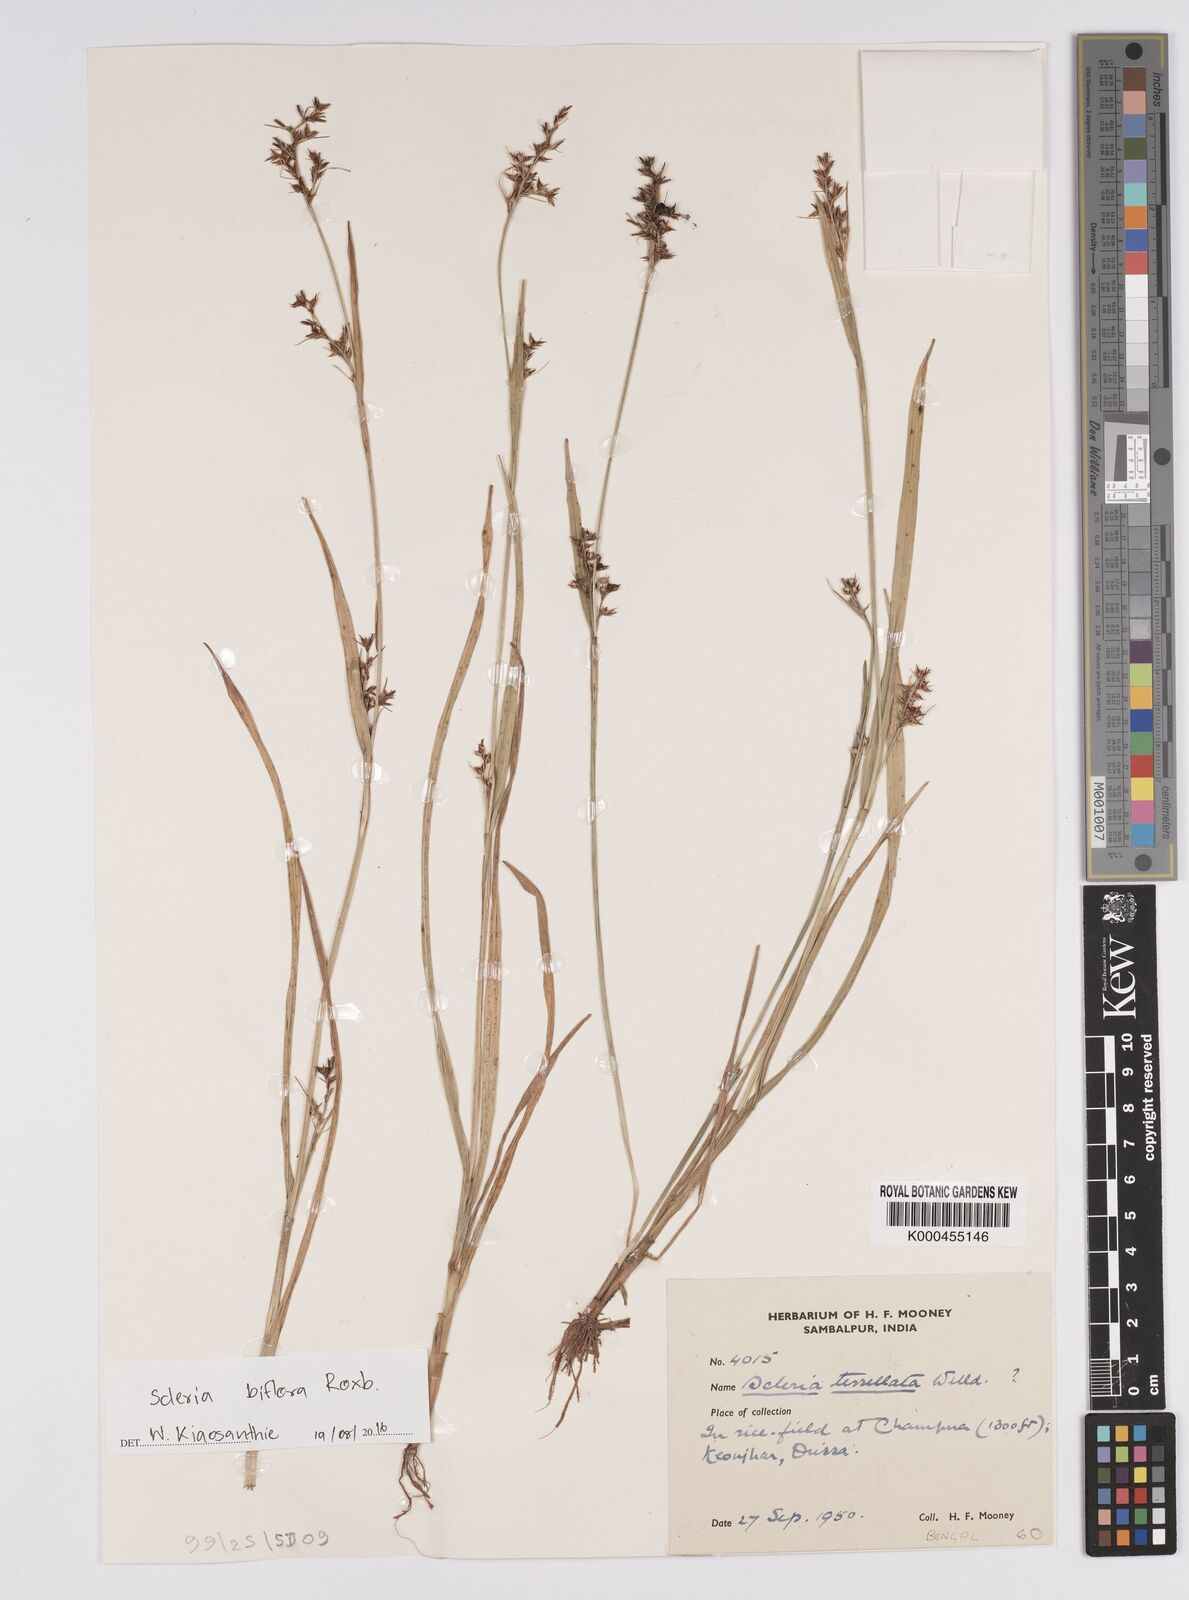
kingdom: Plantae
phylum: Tracheophyta
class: Liliopsida
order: Poales
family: Cyperaceae
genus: Scleria
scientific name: Scleria biflora
